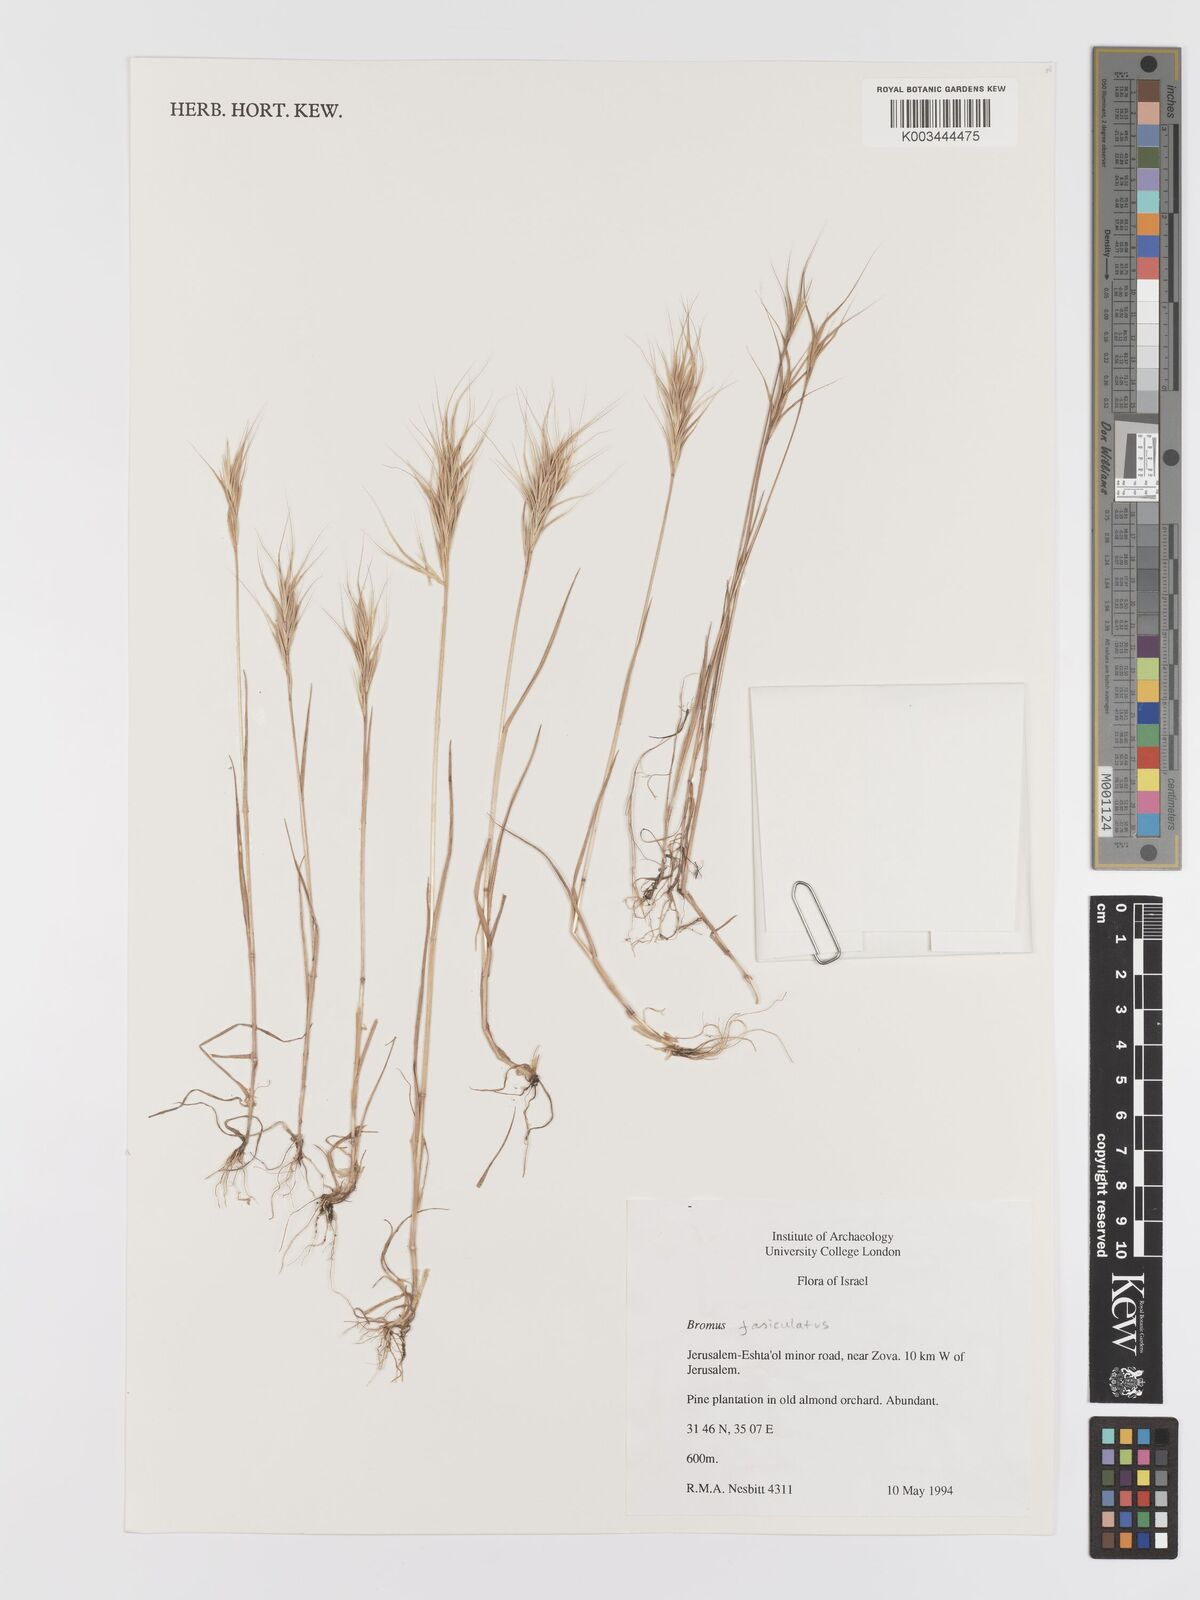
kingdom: Plantae
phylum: Tracheophyta
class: Liliopsida
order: Poales
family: Poaceae
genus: Bromus
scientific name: Bromus fasciculatus
